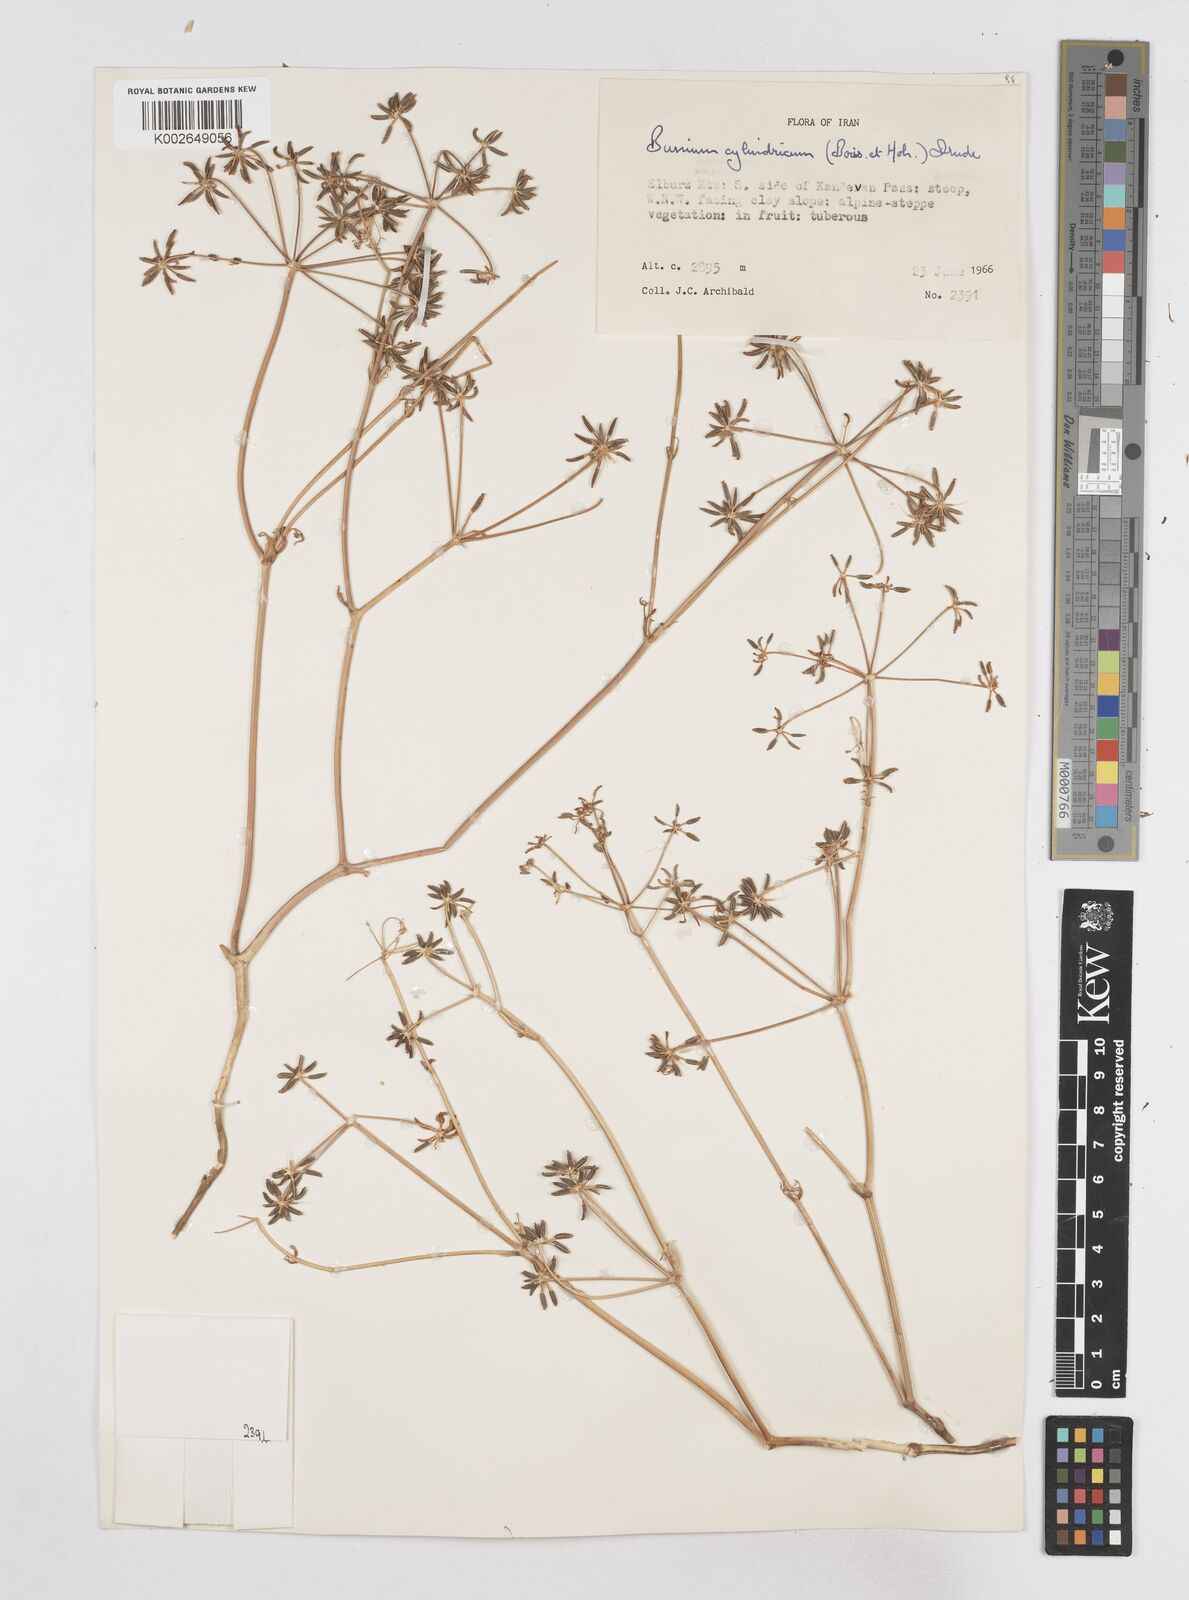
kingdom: Plantae
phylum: Tracheophyta
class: Magnoliopsida
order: Apiales
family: Apiaceae
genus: Elwendia
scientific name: Elwendia cylindrica
